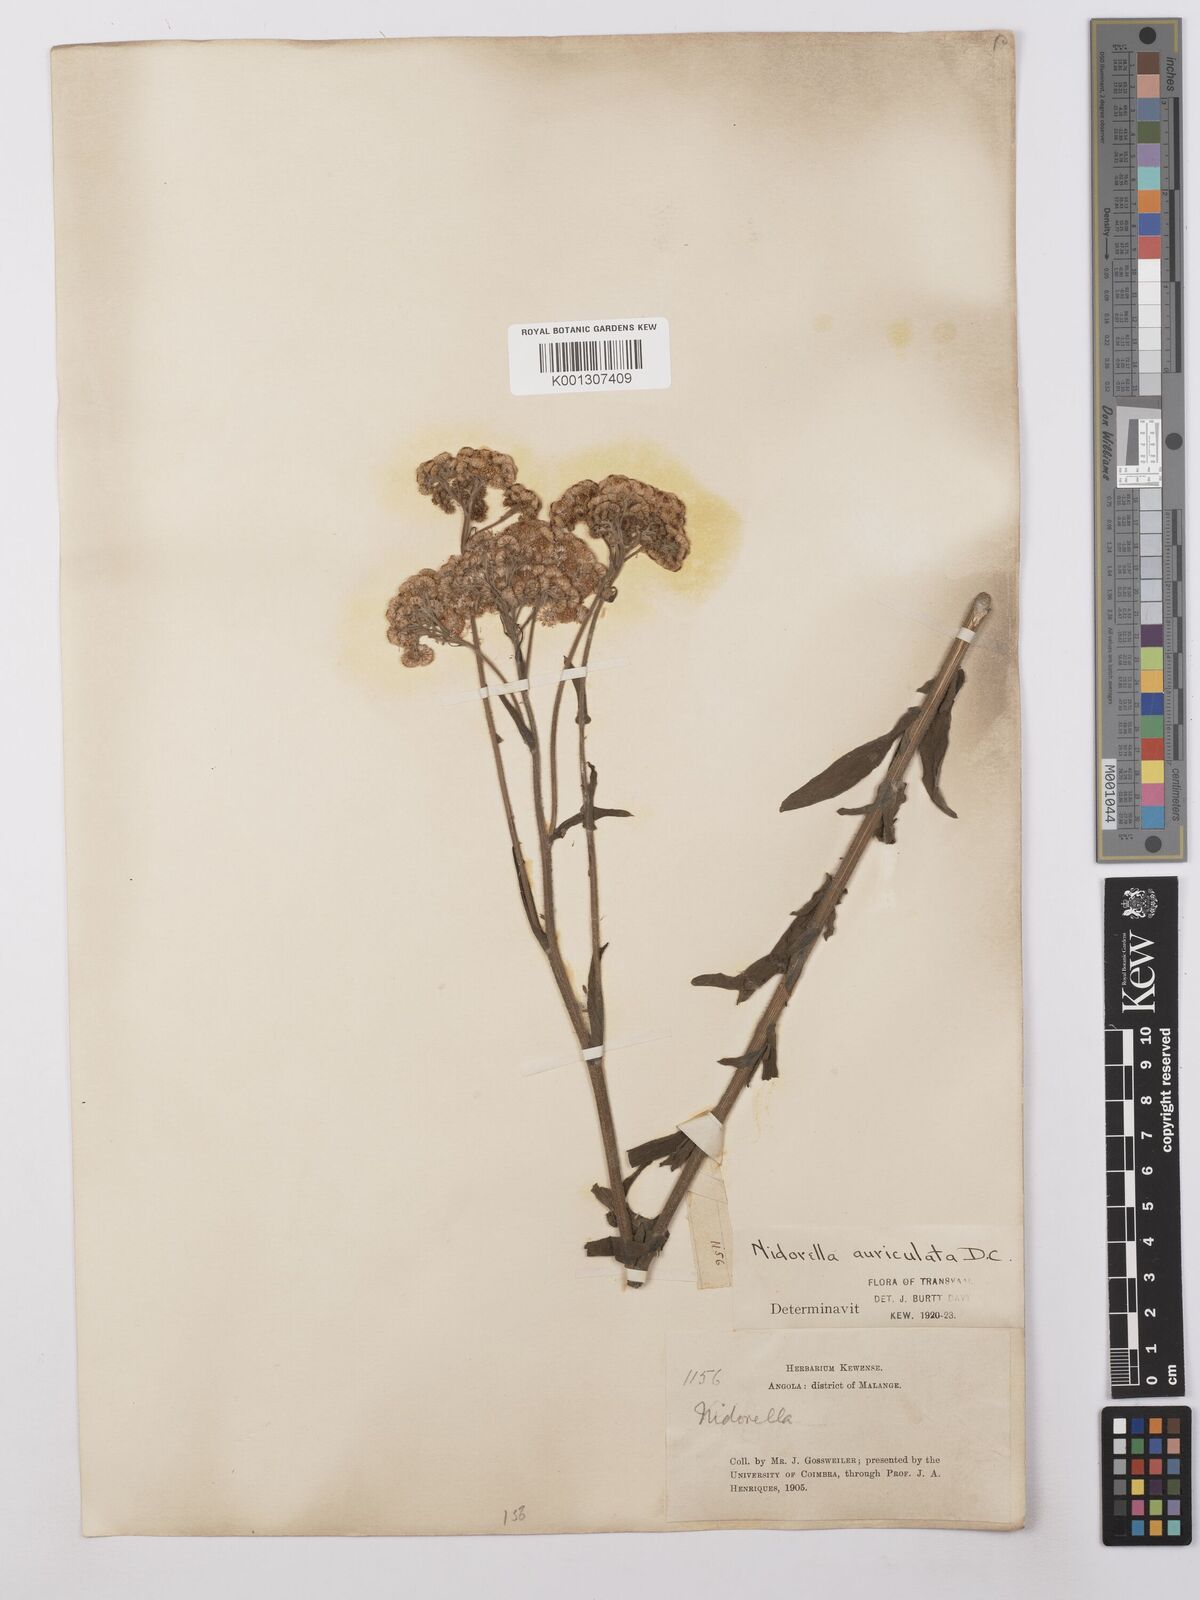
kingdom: Plantae
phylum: Tracheophyta
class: Magnoliopsida
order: Asterales
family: Asteraceae
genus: Nidorella
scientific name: Nidorella auriculata
